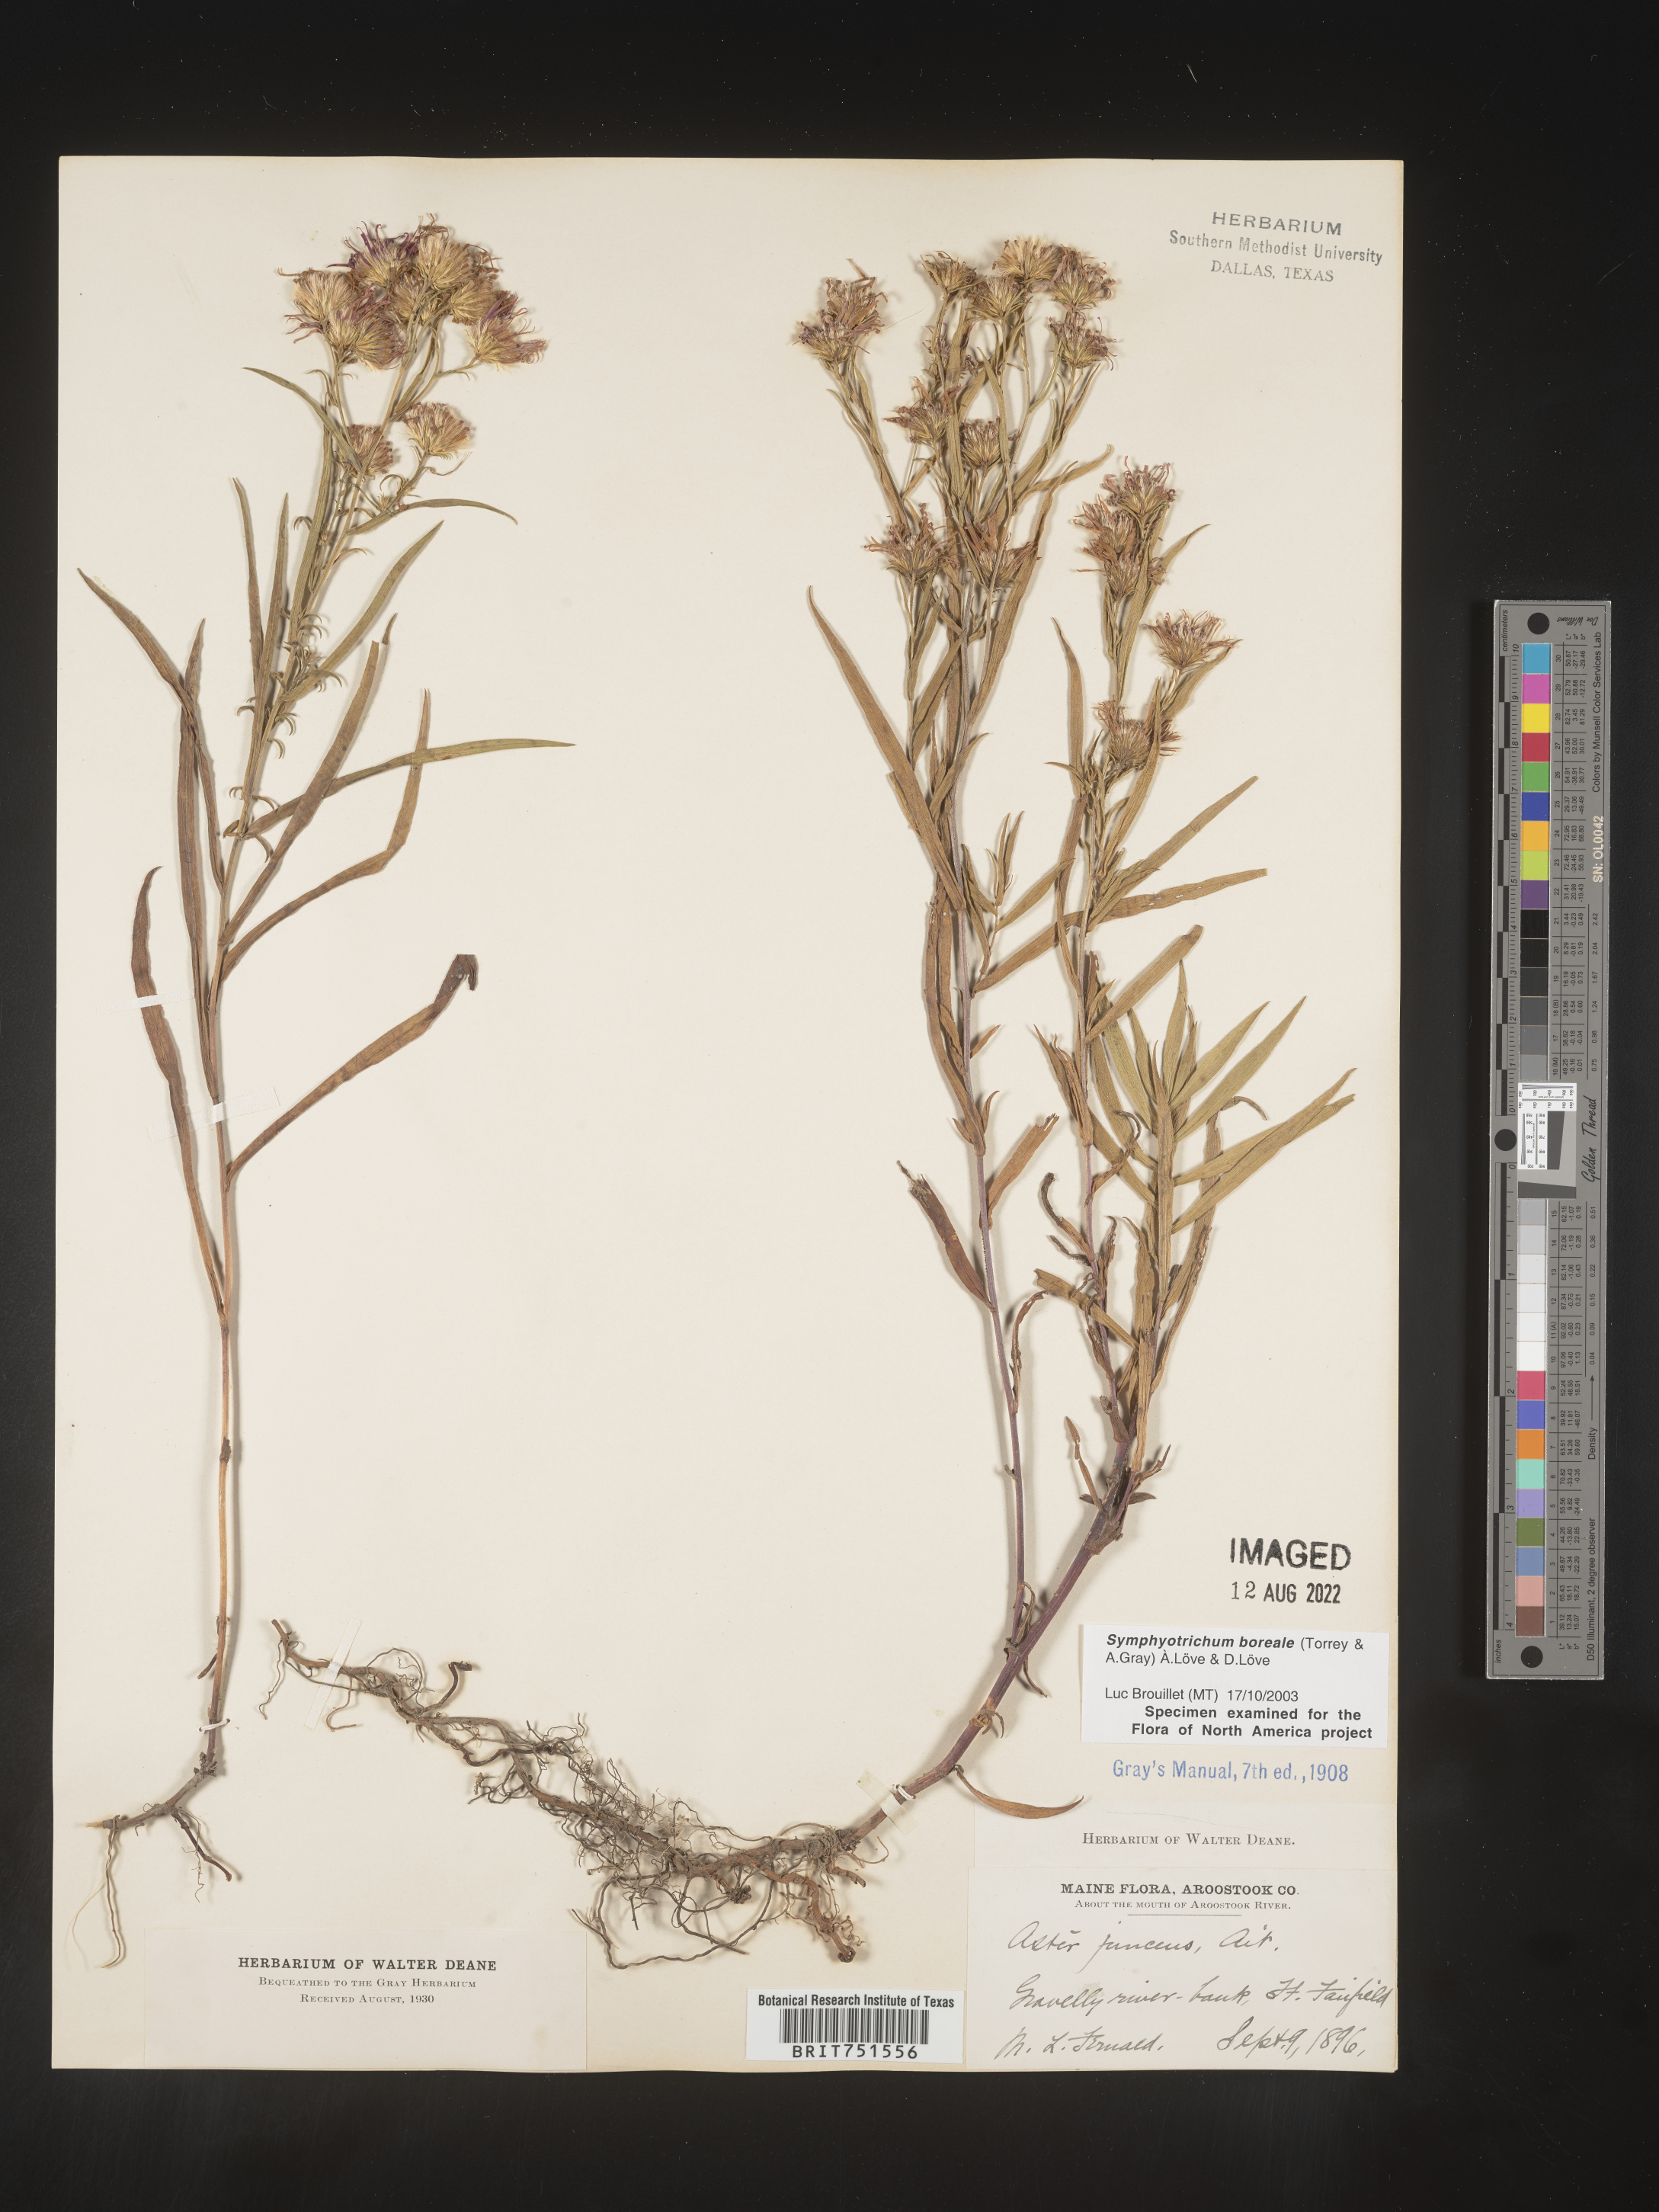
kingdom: Plantae
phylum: Tracheophyta
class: Magnoliopsida
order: Asterales
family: Asteraceae
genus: Symphyotrichum
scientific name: Symphyotrichum boreale
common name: Northern bog aster
